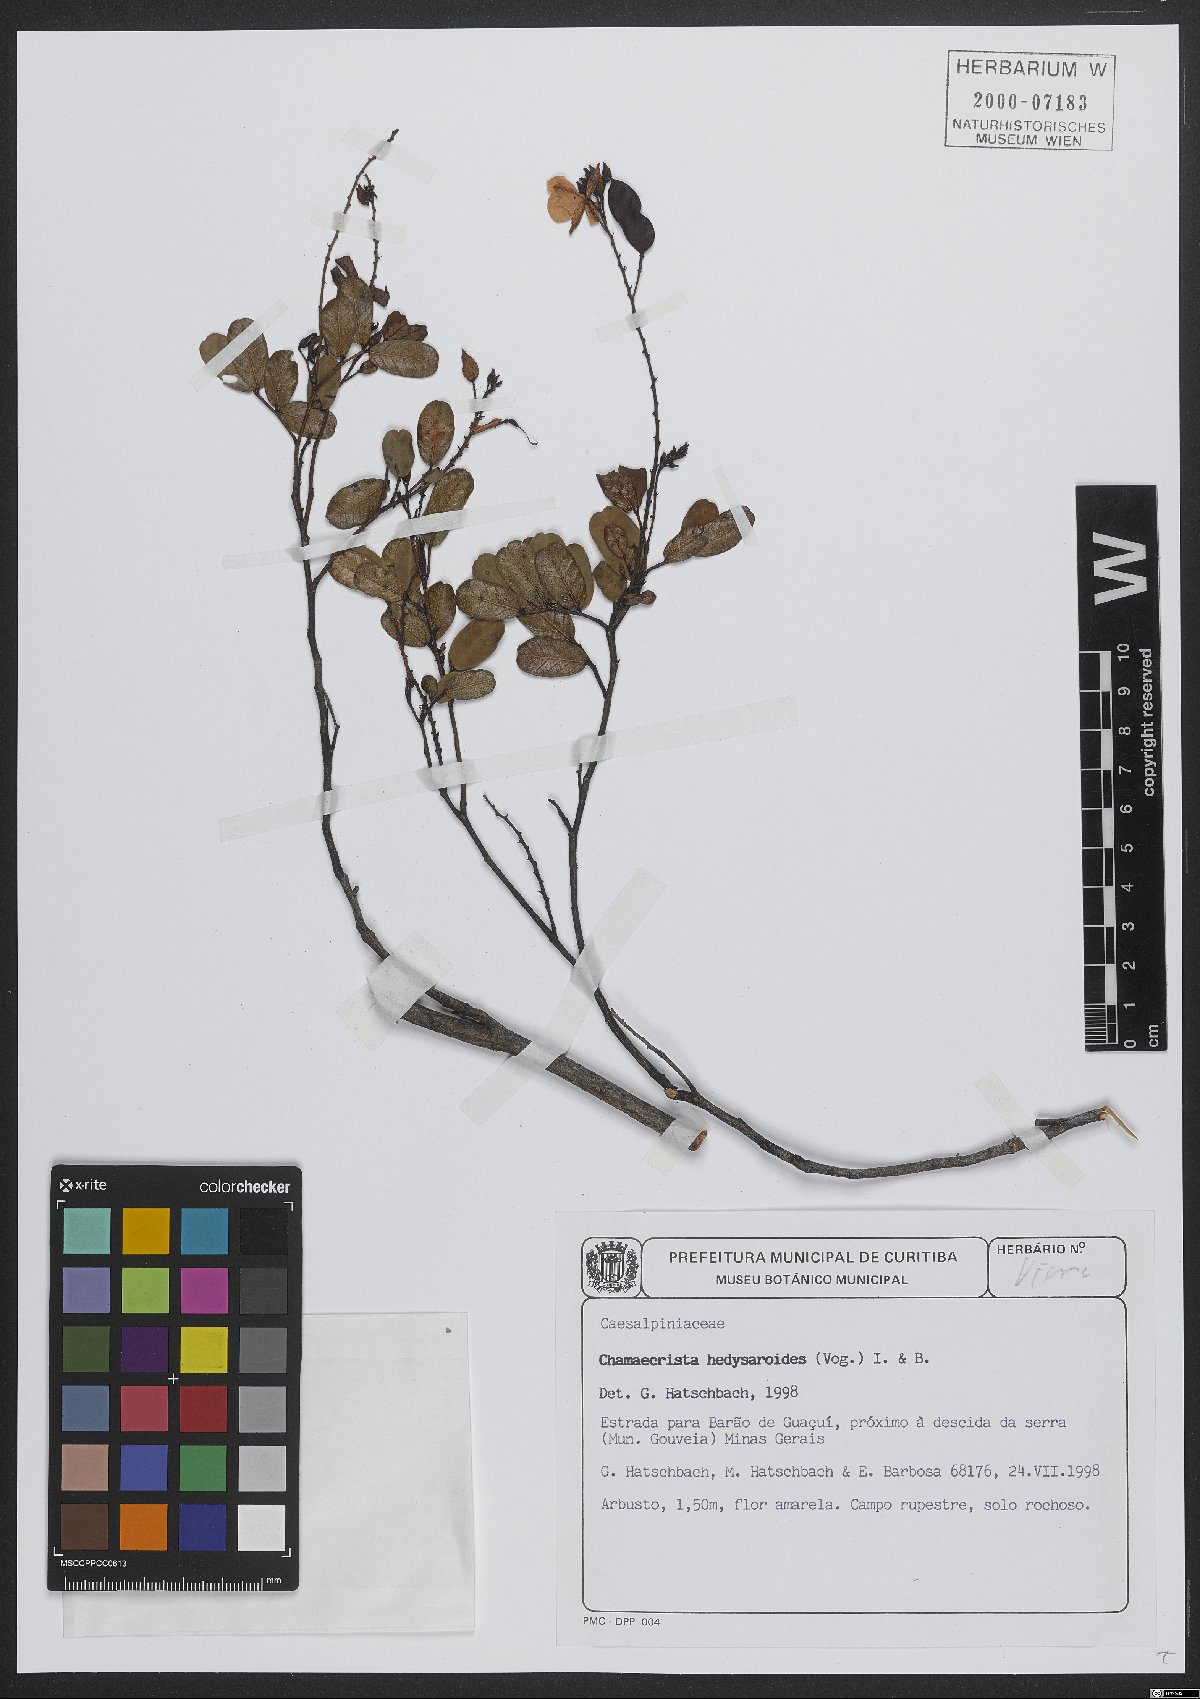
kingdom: Plantae
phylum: Tracheophyta
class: Magnoliopsida
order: Fabales
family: Fabaceae
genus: Chamaecrista
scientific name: Chamaecrista hedysaroides
